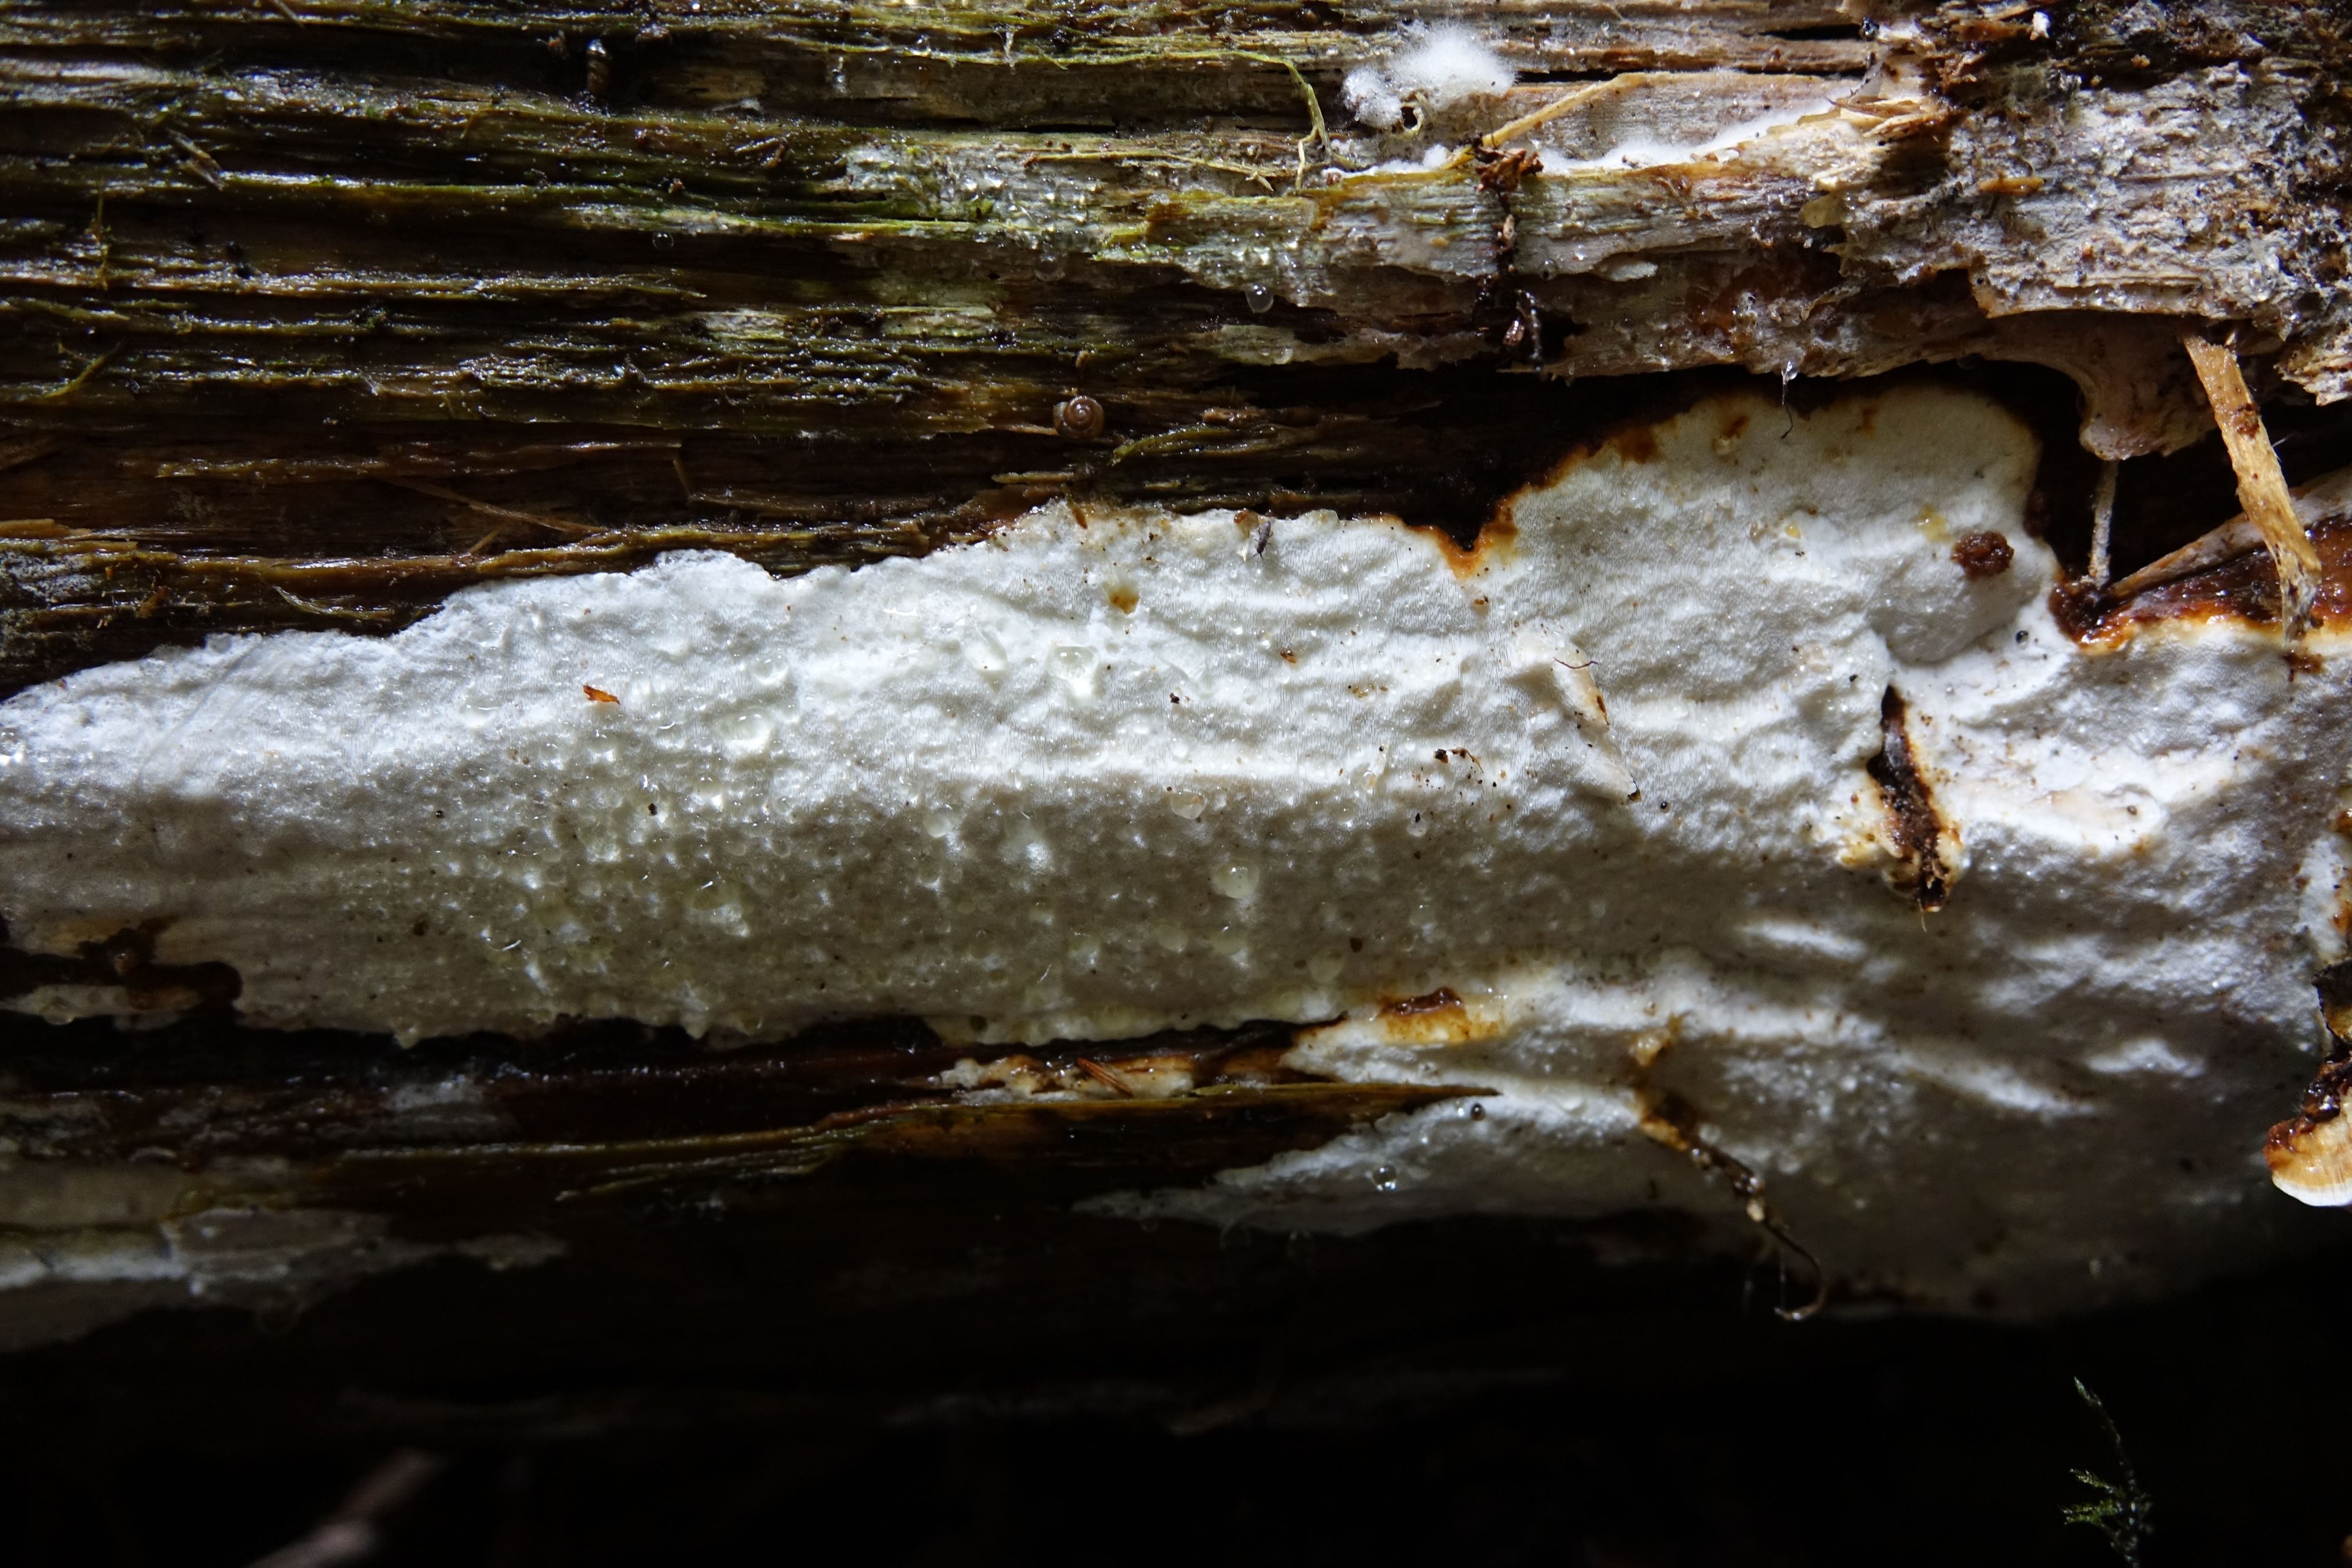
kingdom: Fungi
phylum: Basidiomycota
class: Agaricomycetes
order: Polyporales
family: Incrustoporiaceae
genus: Skeletocutis
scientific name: Skeletocutis stellae
